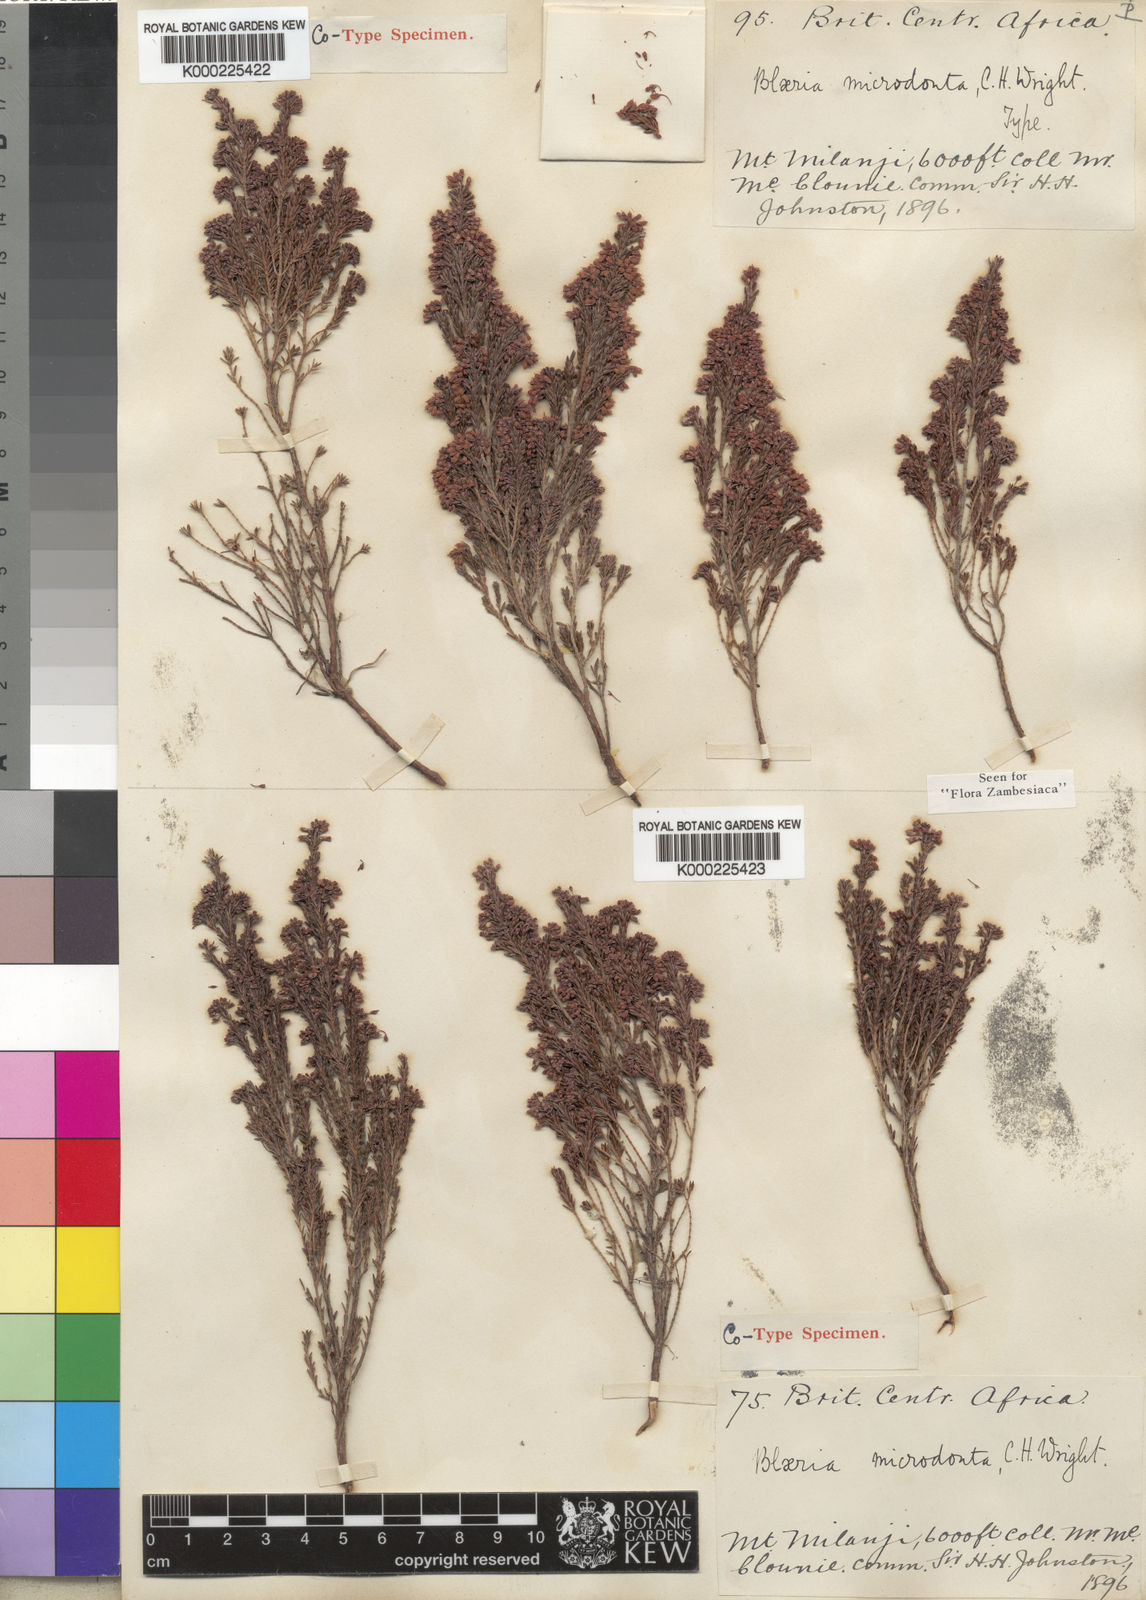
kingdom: Plantae
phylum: Tracheophyta
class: Magnoliopsida
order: Ericales
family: Ericaceae
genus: Erica
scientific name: Erica microdonta
